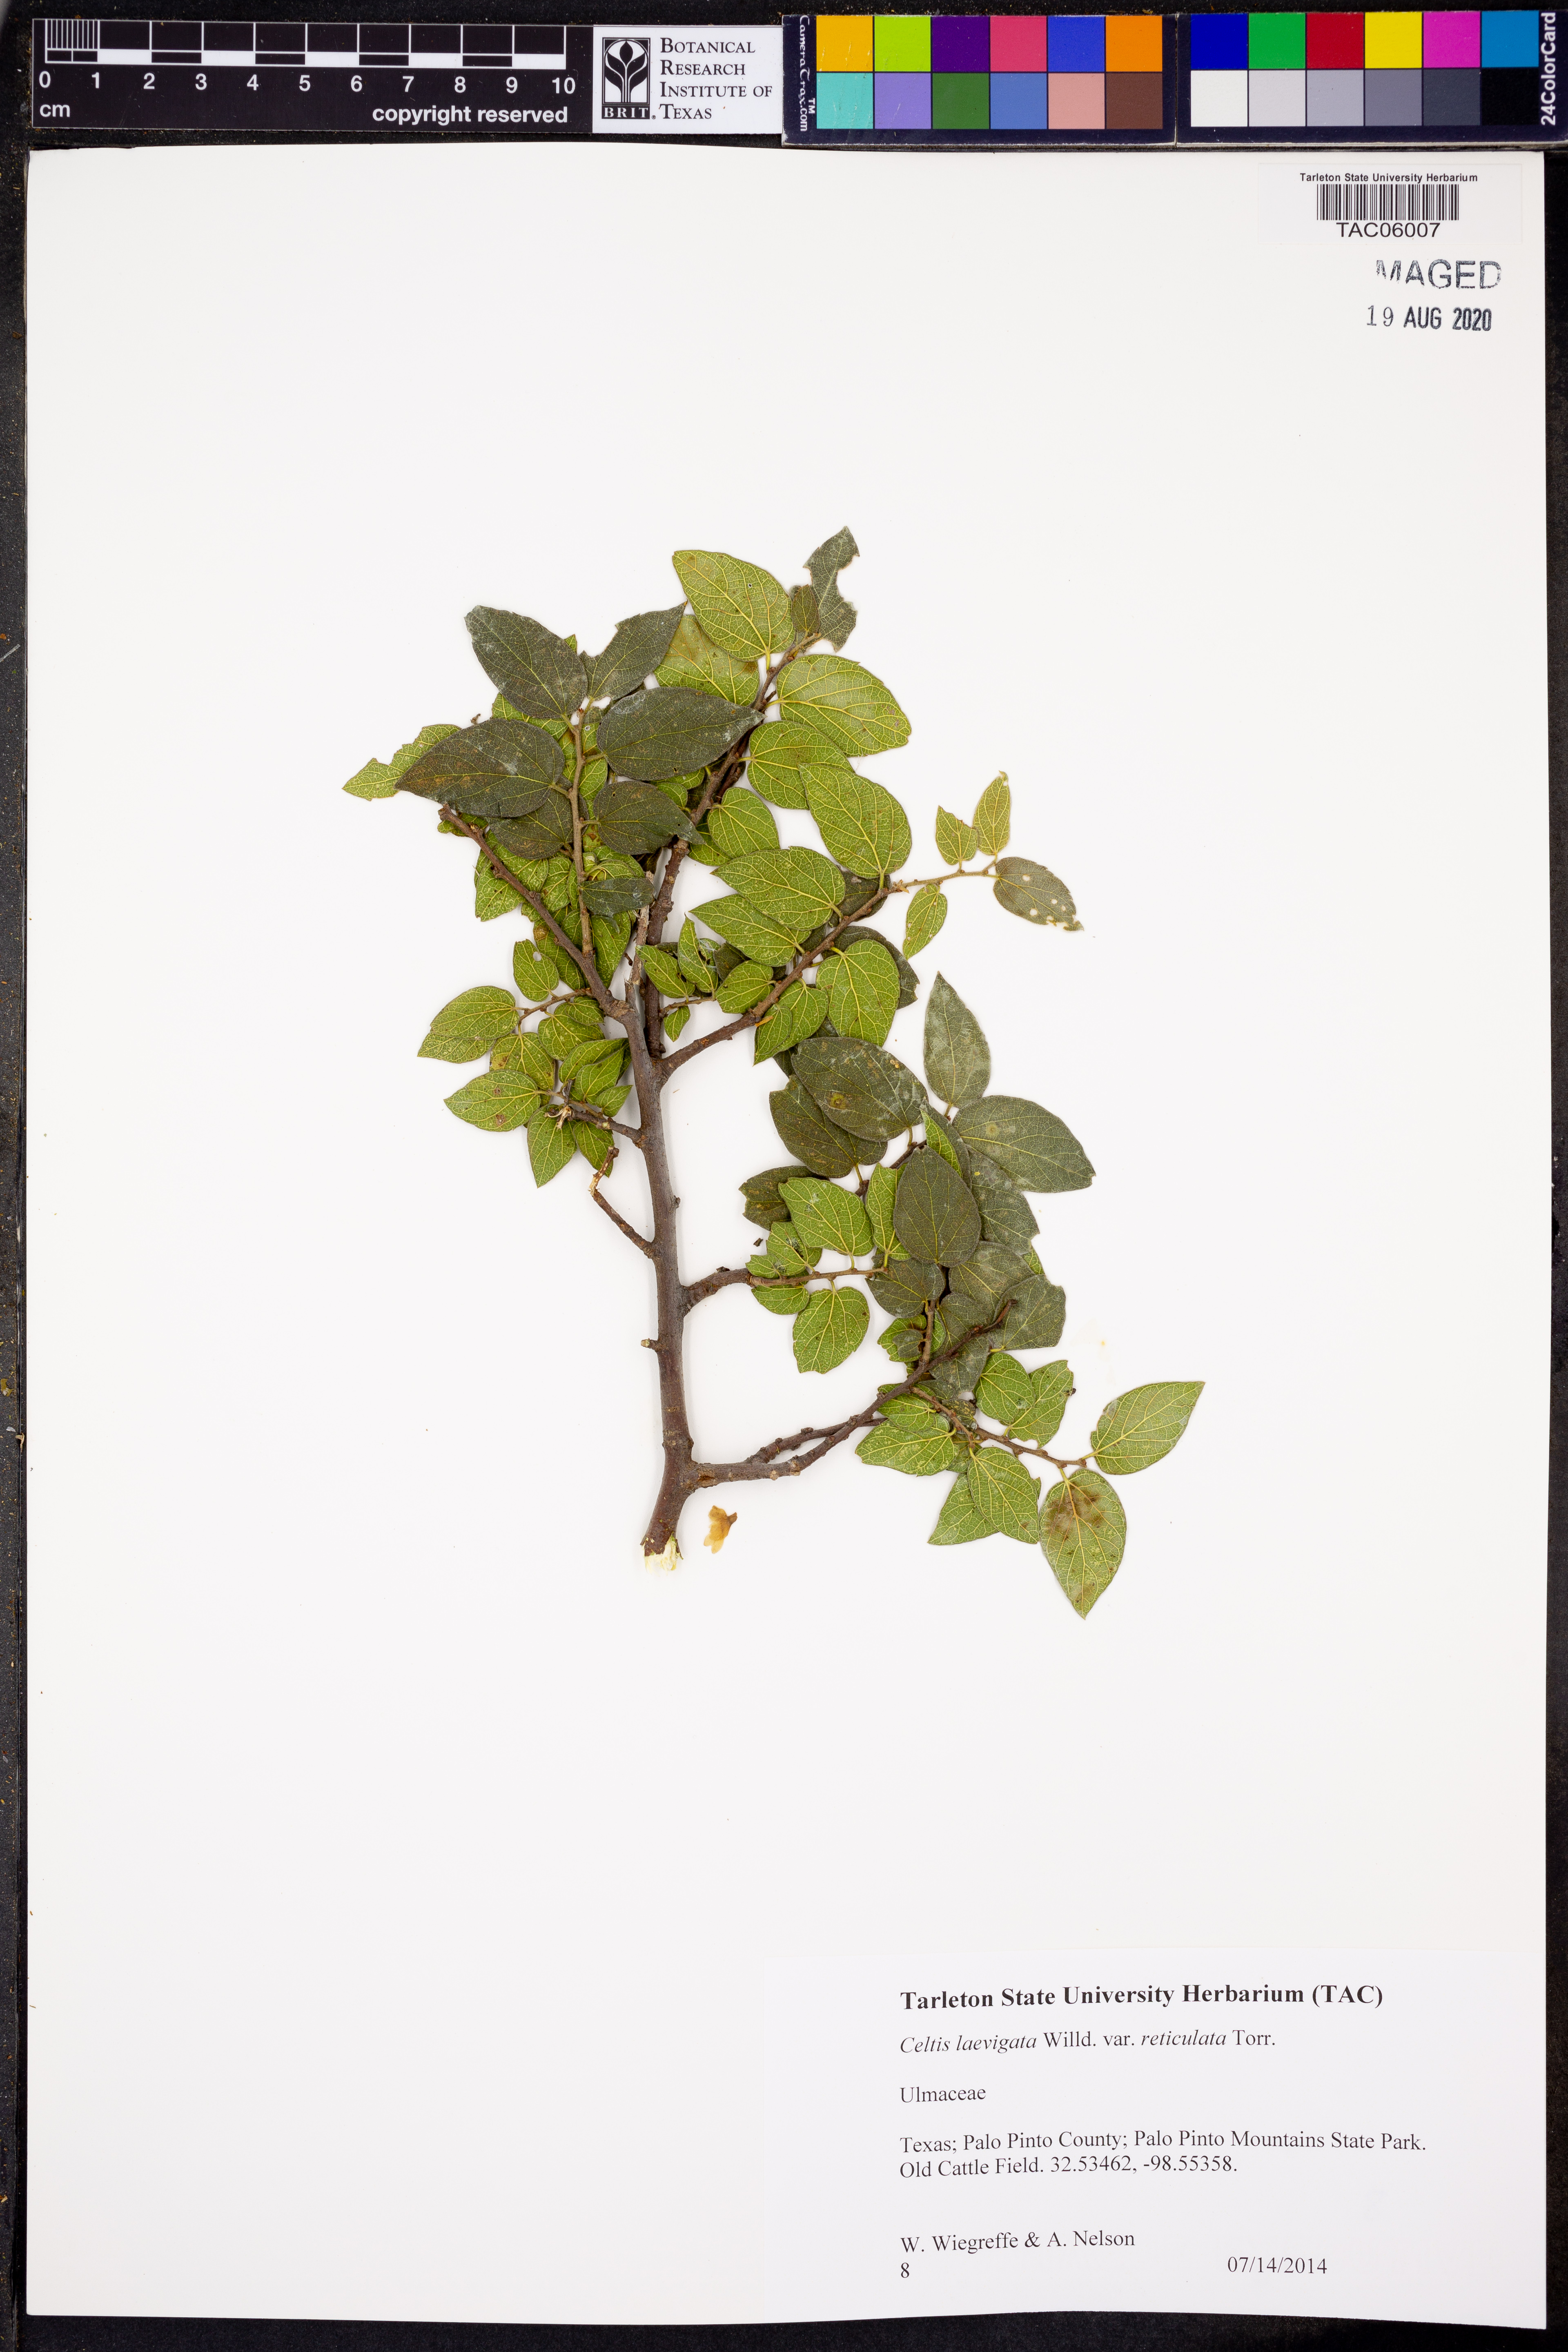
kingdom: Plantae
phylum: Tracheophyta
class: Magnoliopsida
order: Rosales
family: Cannabaceae
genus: Celtis
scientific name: Celtis reticulata
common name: Netleaf hackberry
